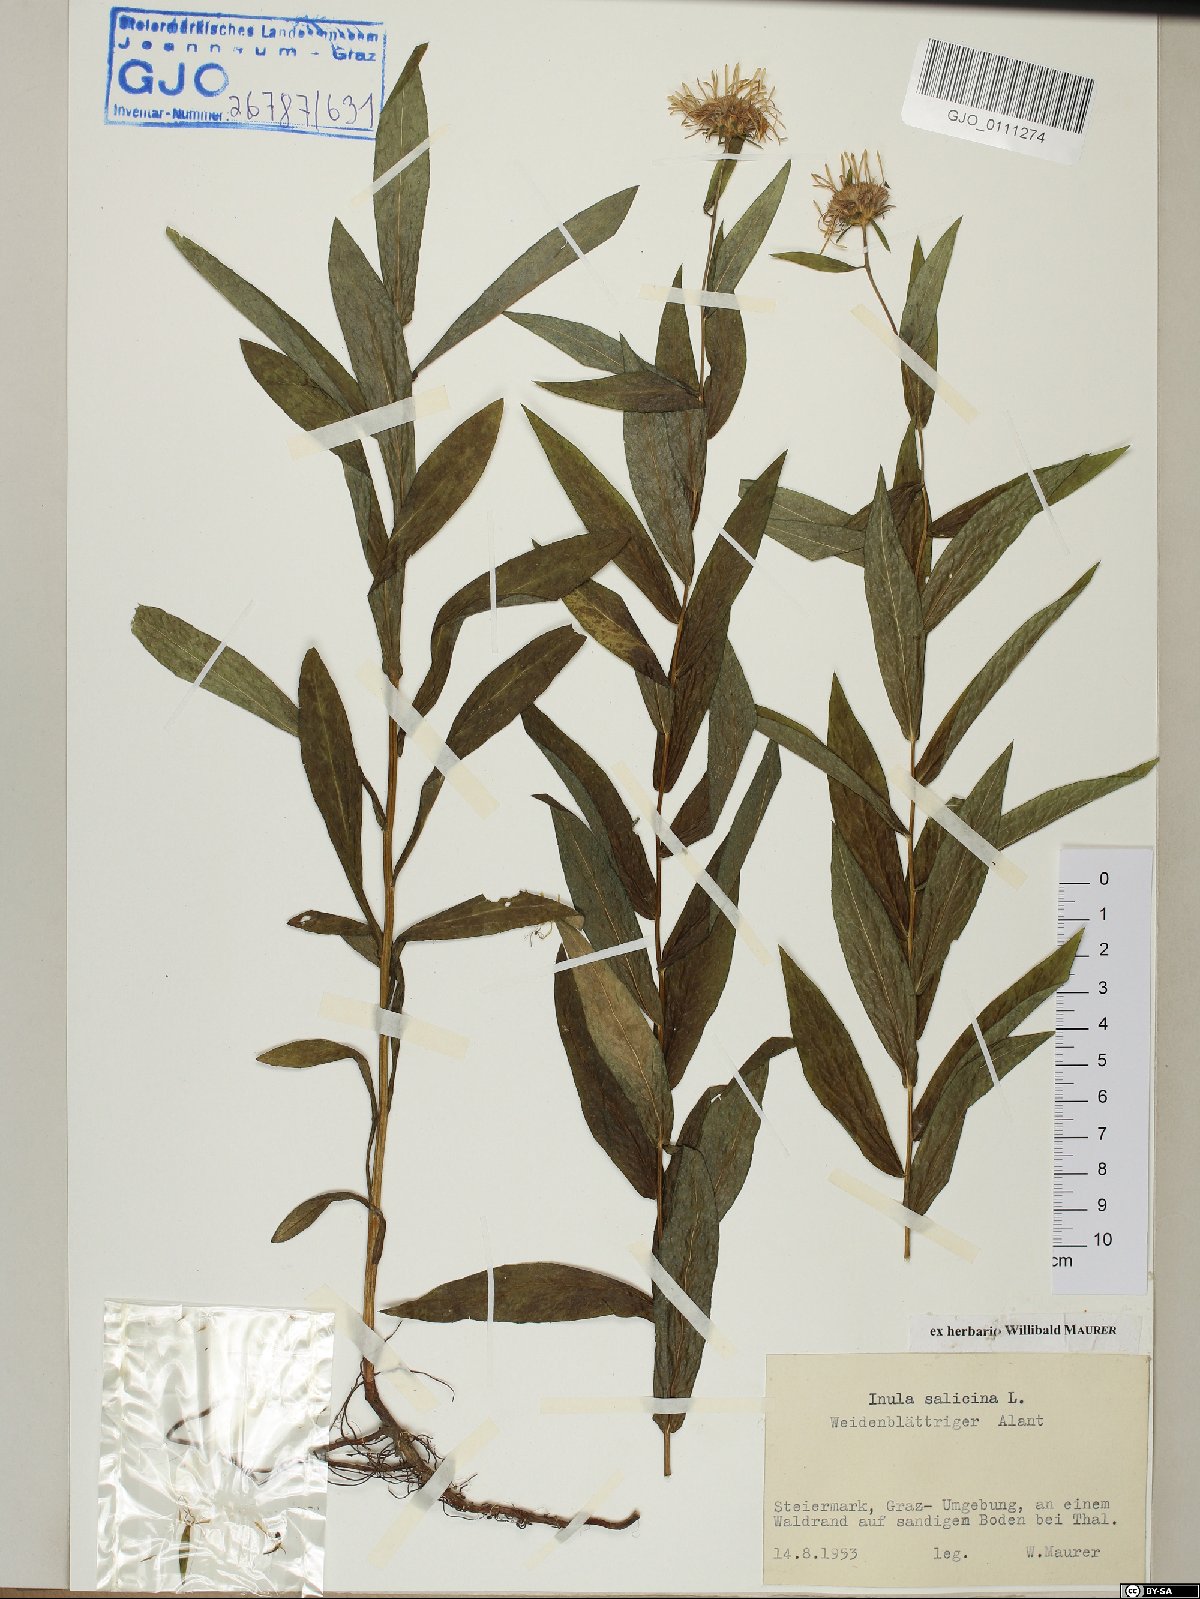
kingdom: Plantae
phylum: Tracheophyta
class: Magnoliopsida
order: Asterales
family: Asteraceae
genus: Pentanema
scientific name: Pentanema salicinum
